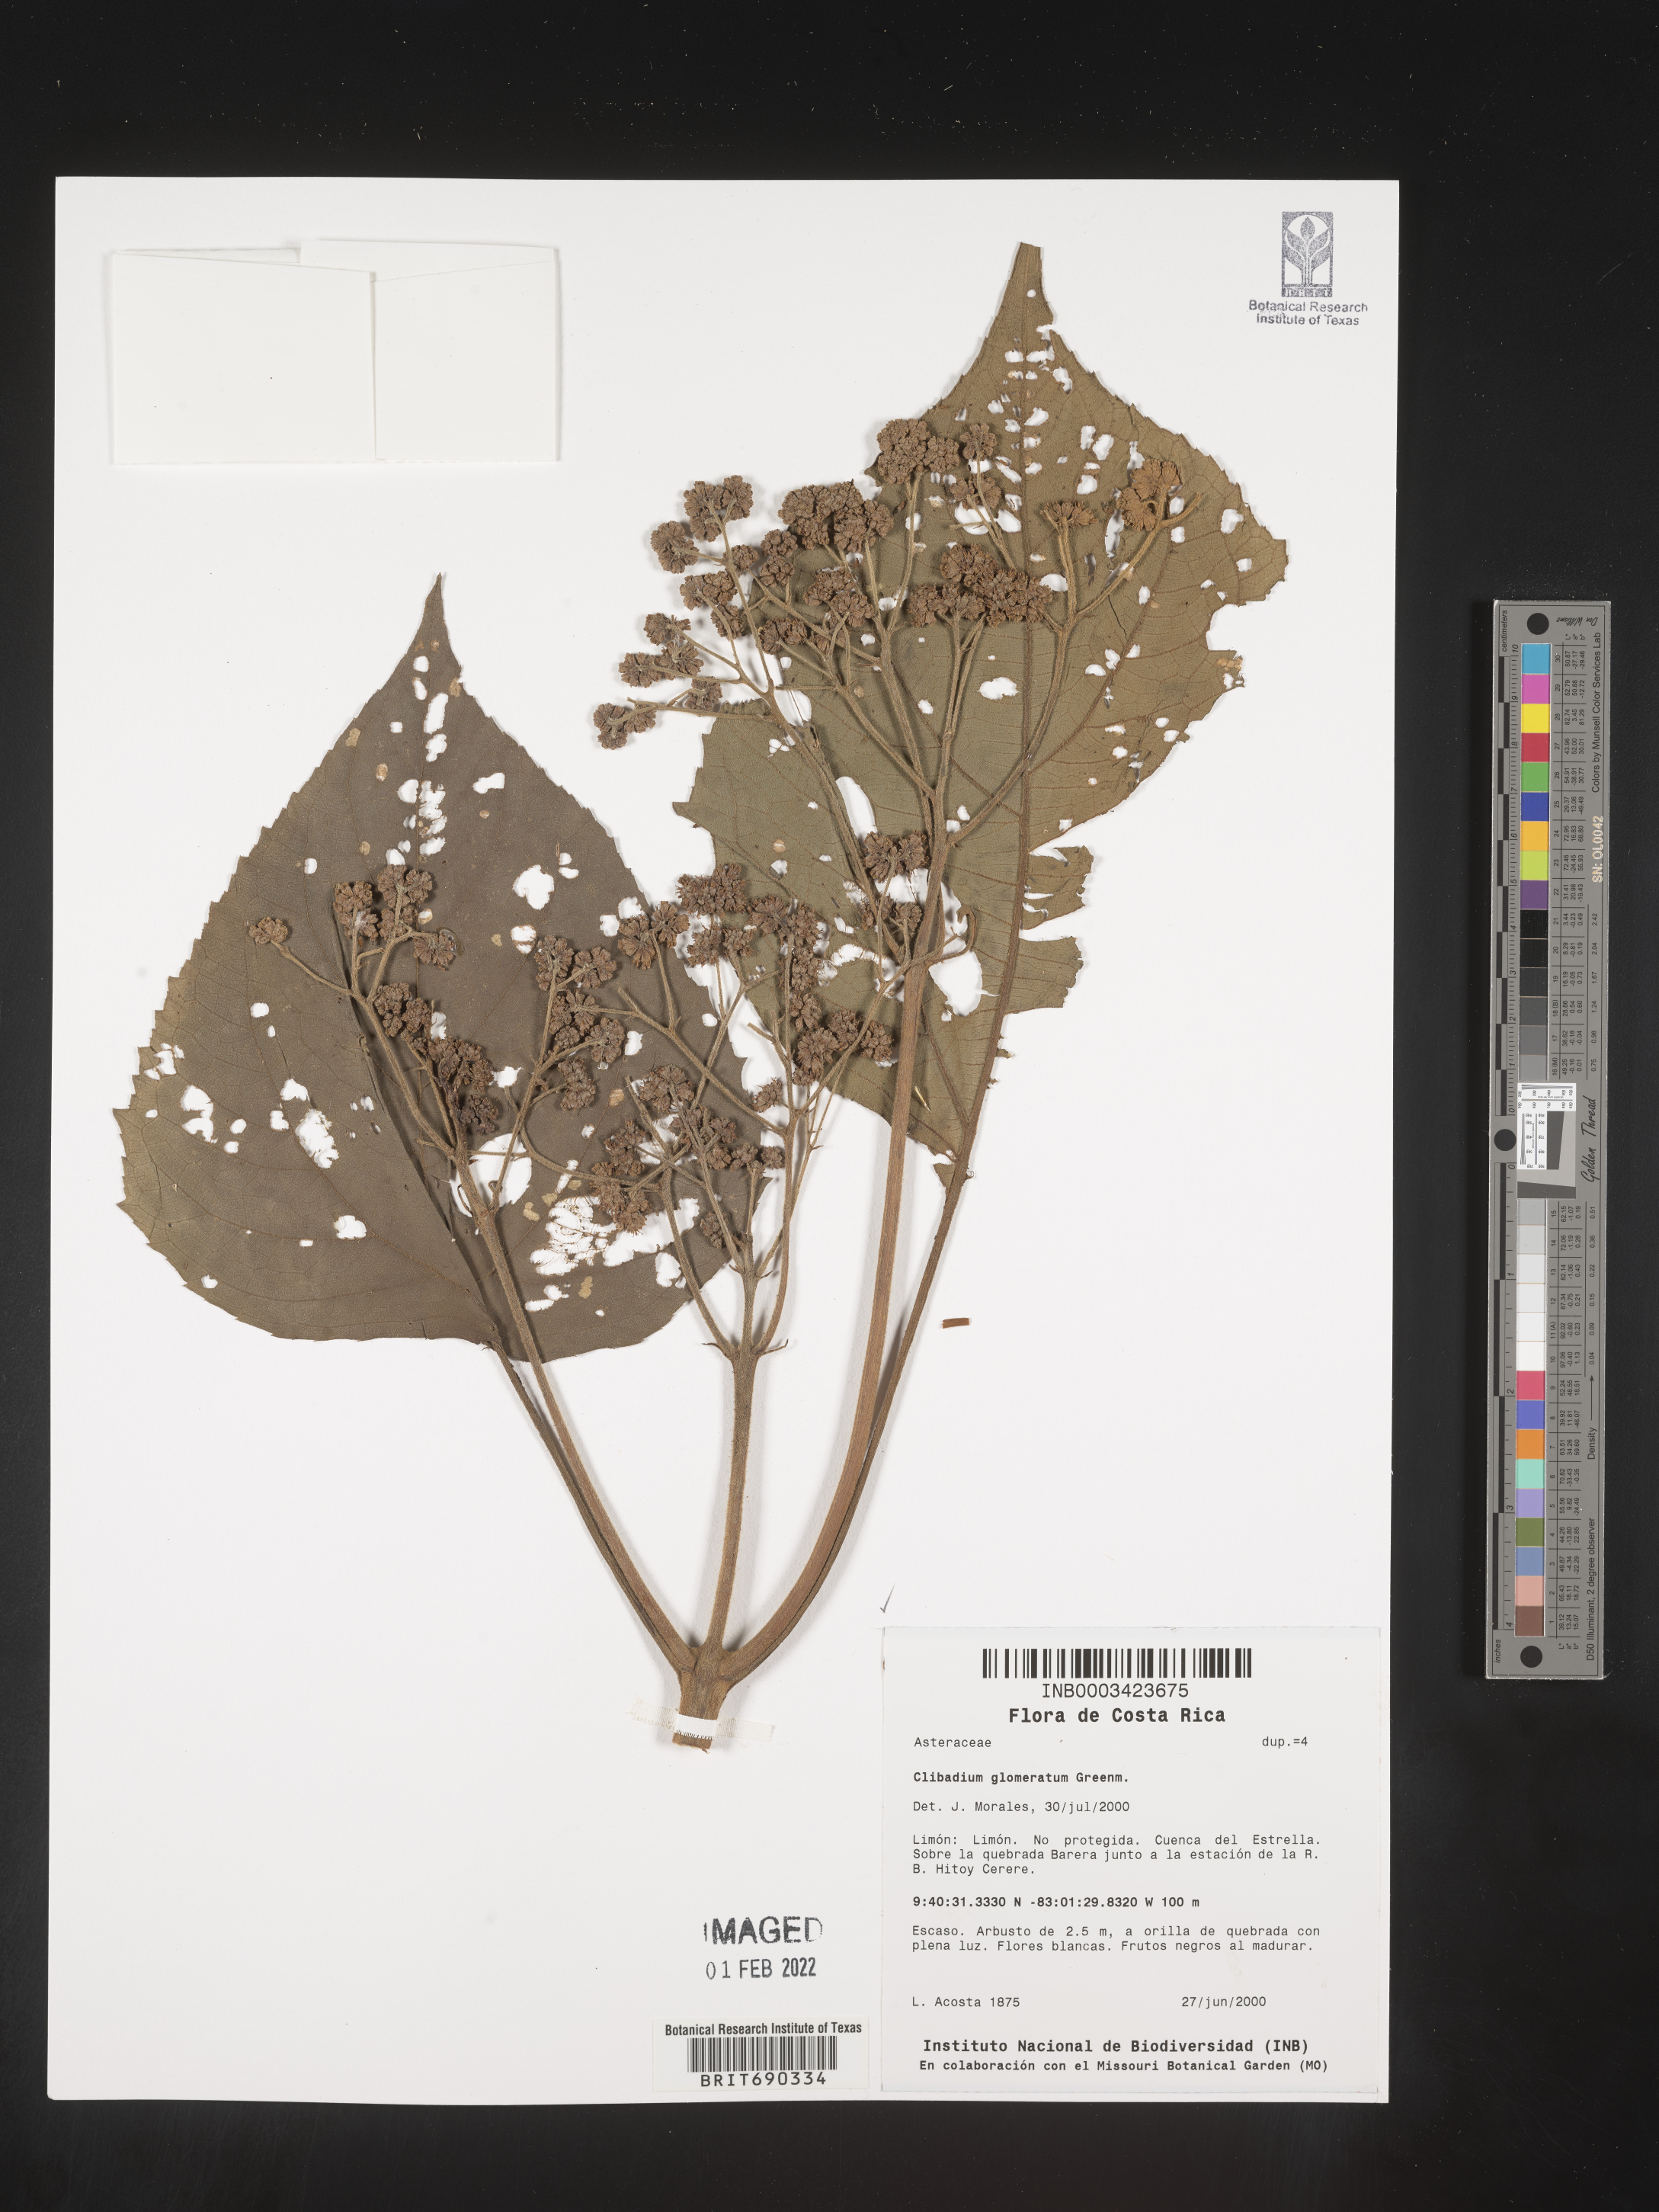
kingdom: Plantae
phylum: Tracheophyta
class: Magnoliopsida
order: Asterales
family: Asteraceae
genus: Clibadium
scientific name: Clibadium
